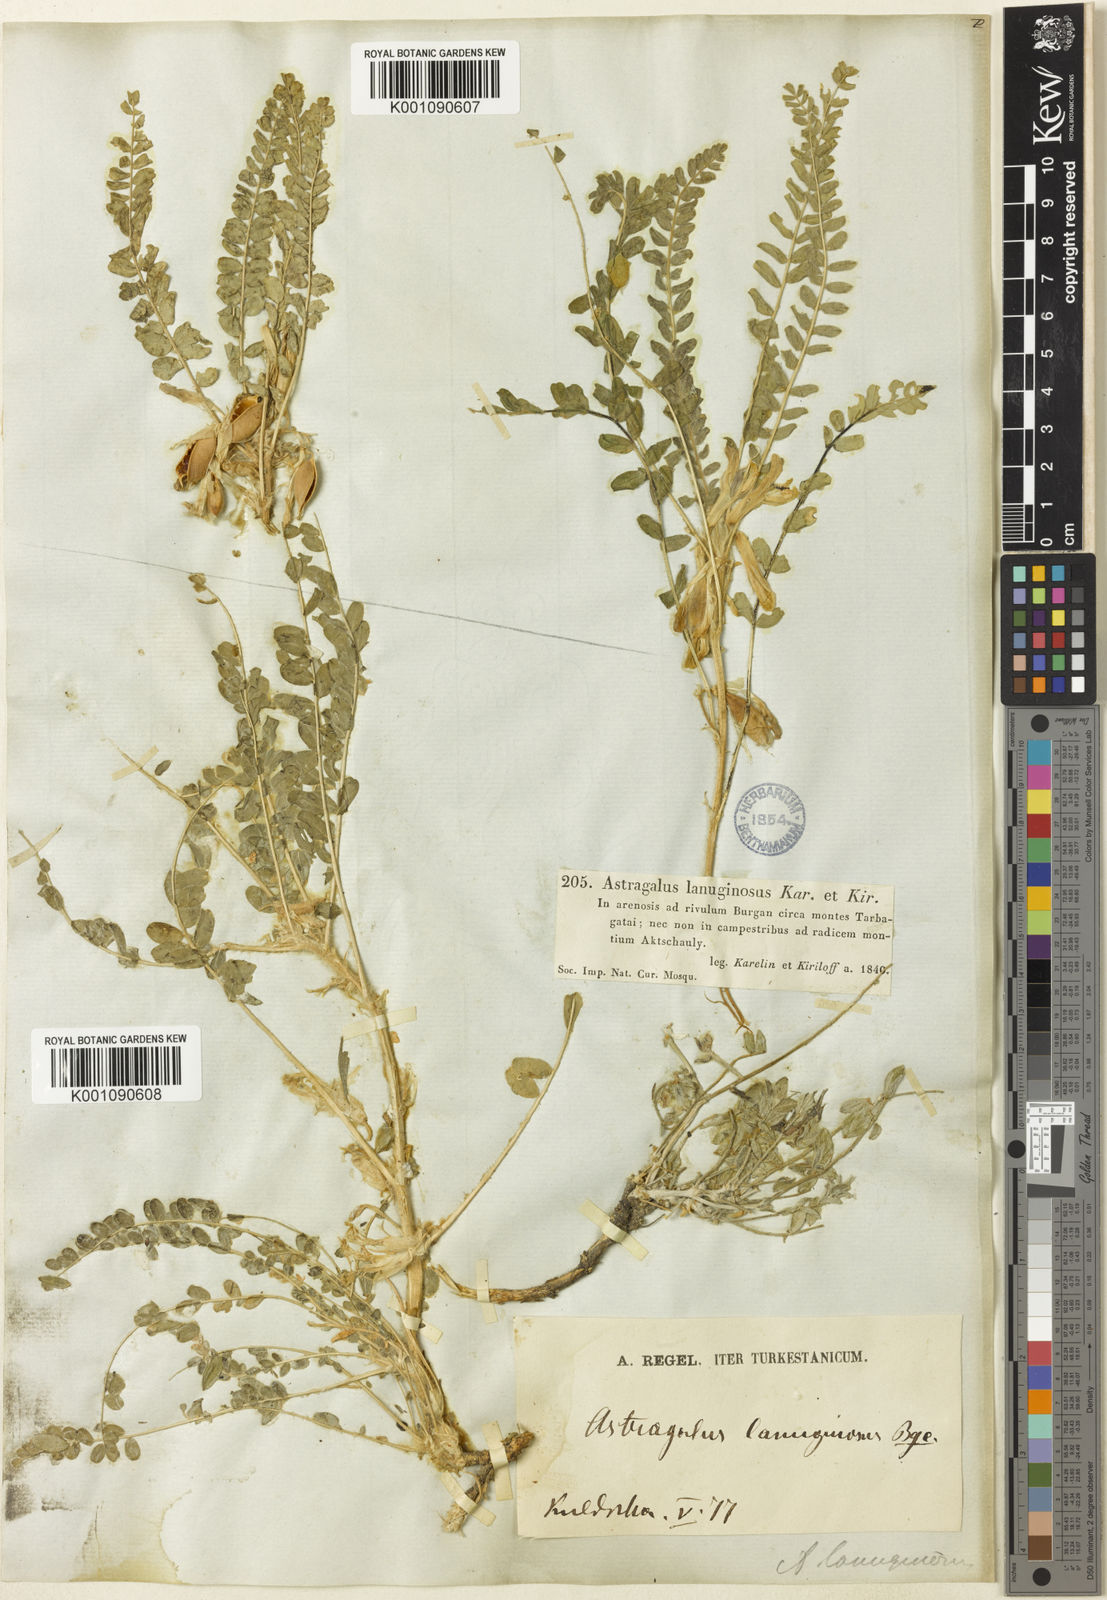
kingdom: Plantae
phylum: Tracheophyta
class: Magnoliopsida
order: Fabales
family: Fabaceae
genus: Astragalus
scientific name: Astragalus
